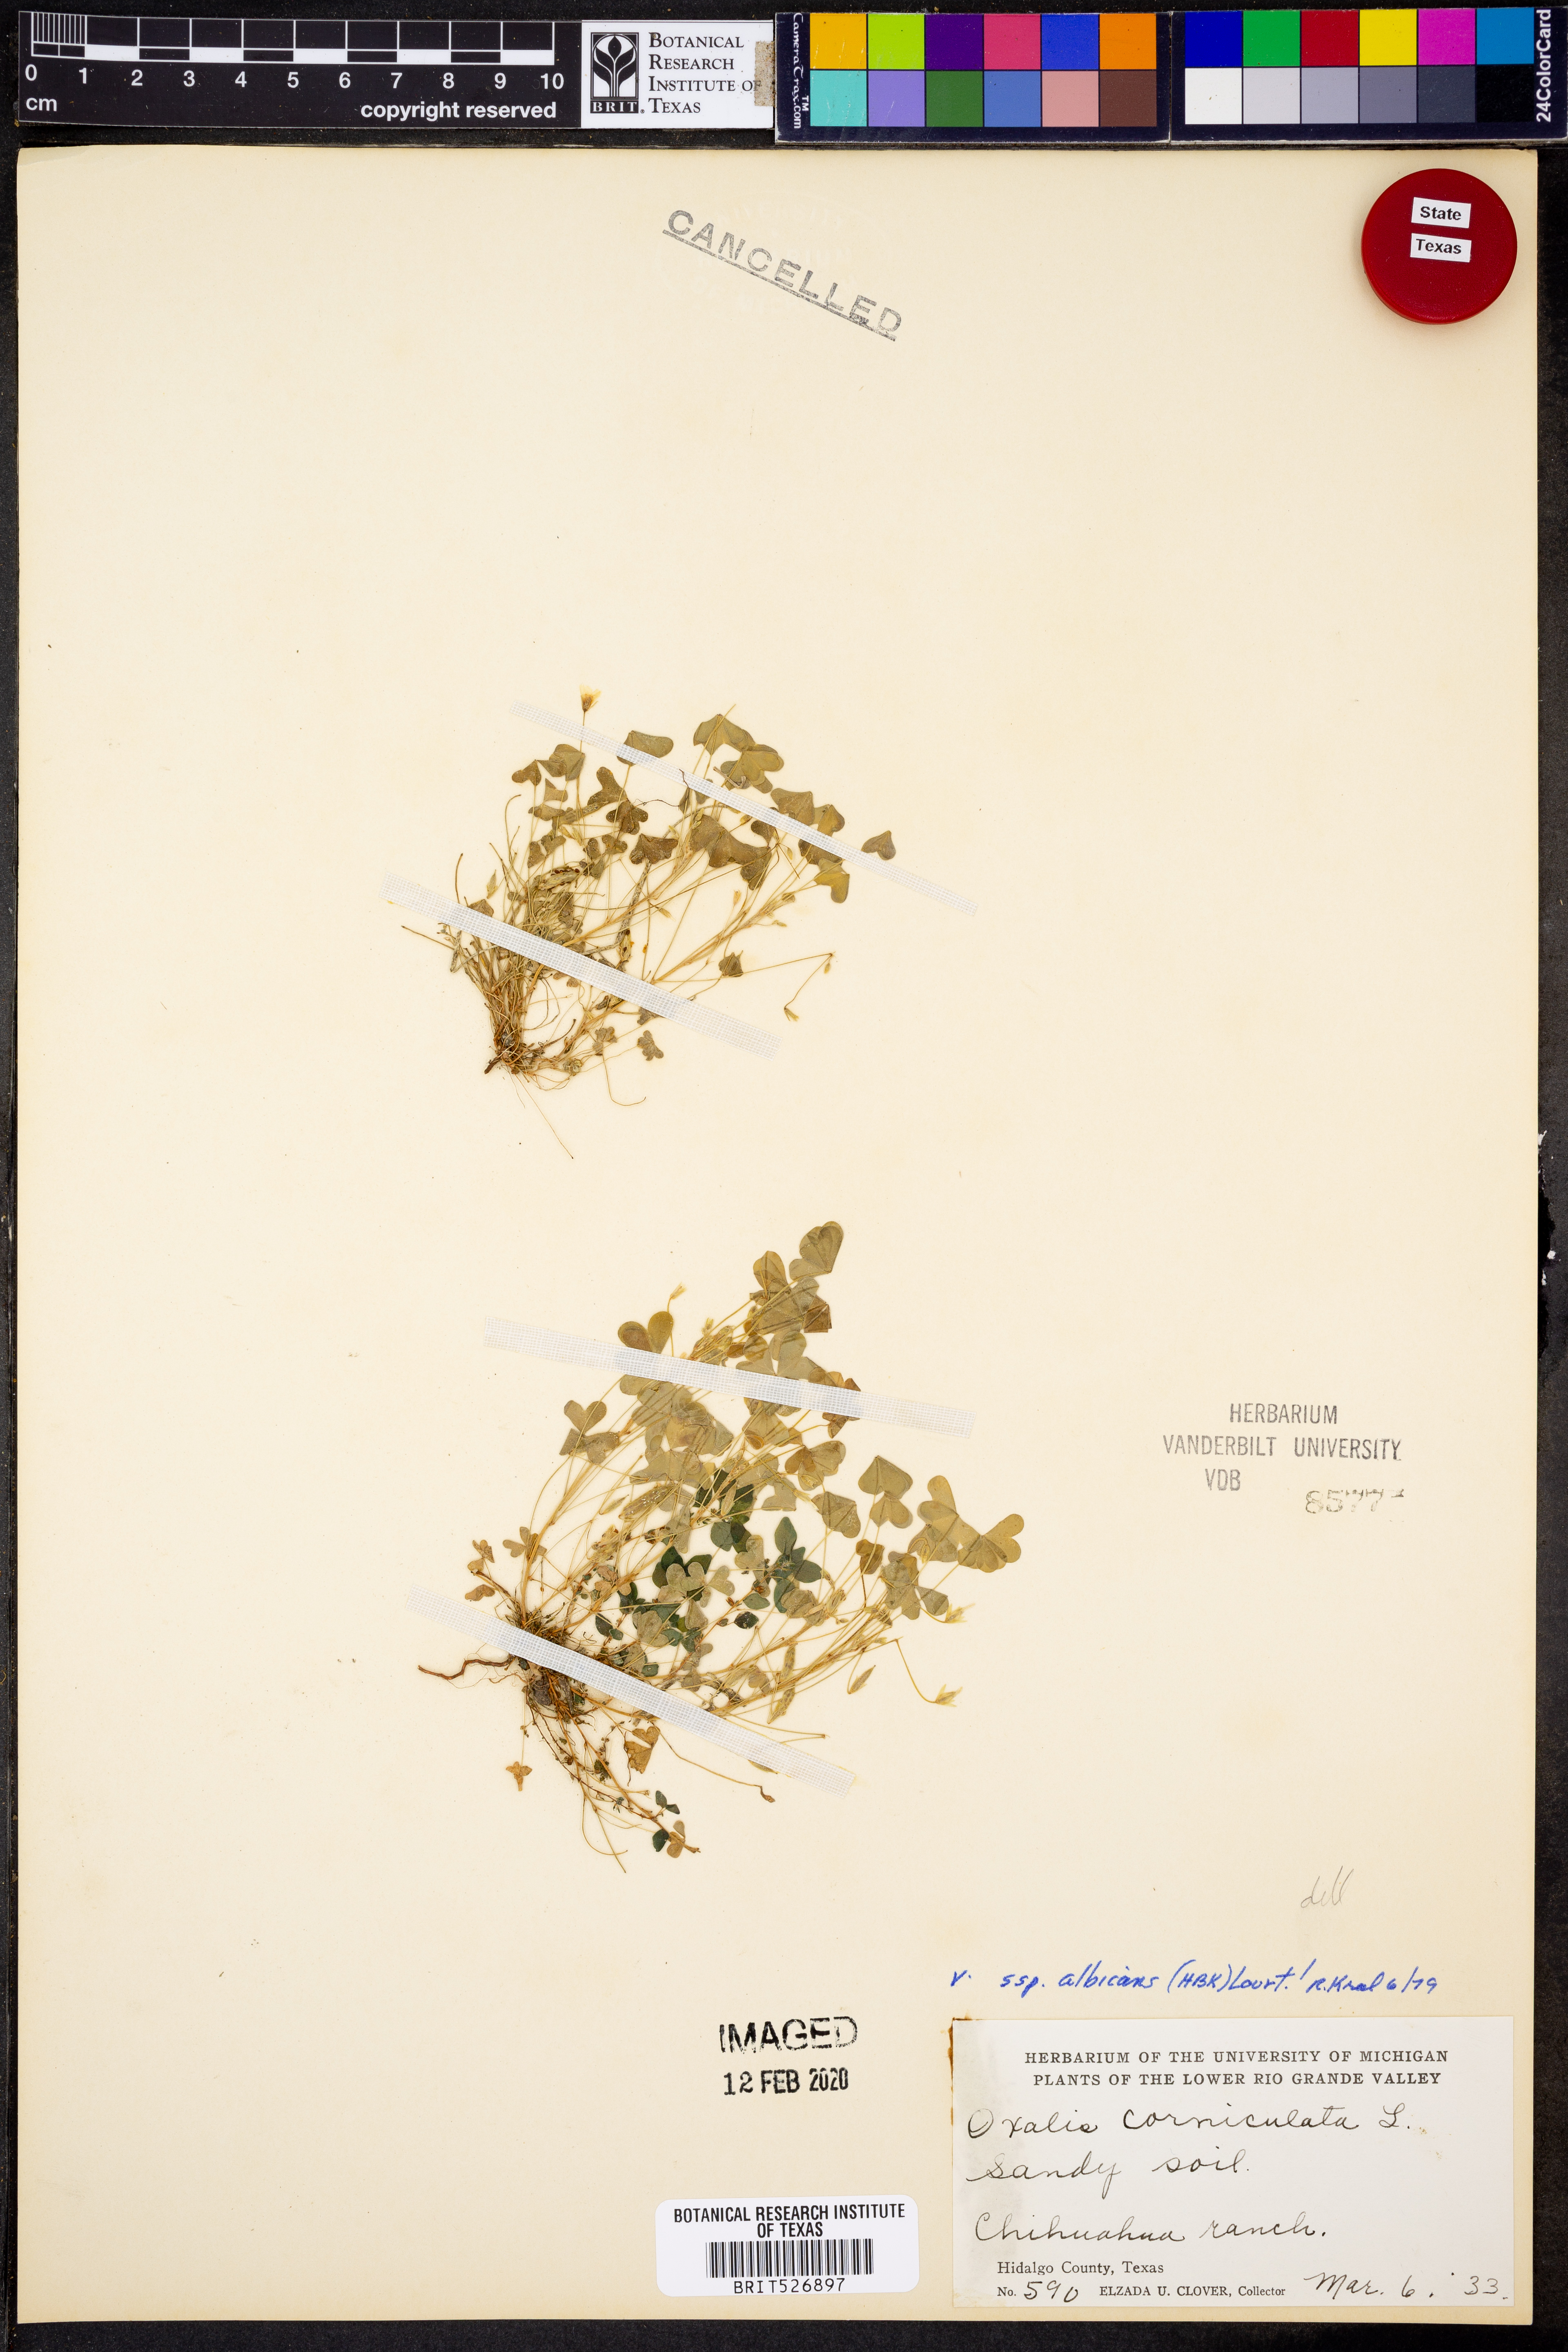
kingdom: Plantae
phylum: Tracheophyta
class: Magnoliopsida
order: Oxalidales
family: Oxalidaceae
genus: Oxalis
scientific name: Oxalis albicans
